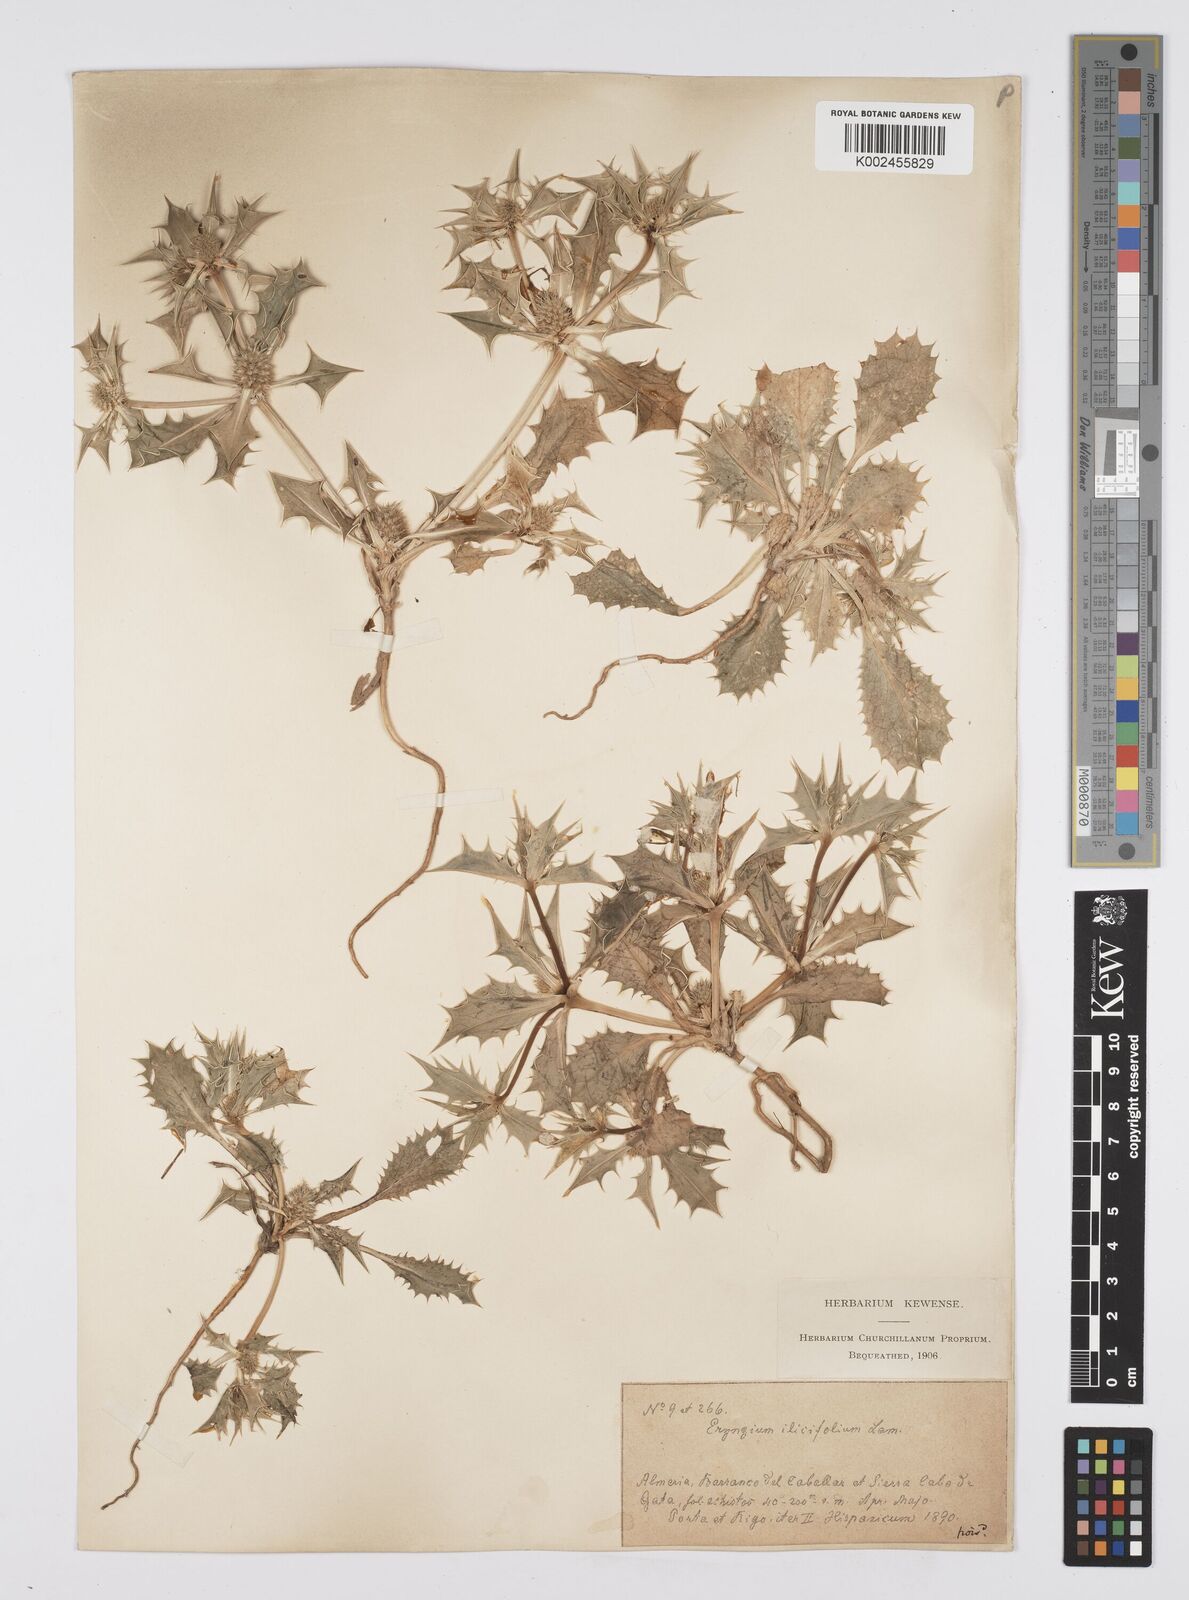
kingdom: Plantae
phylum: Tracheophyta
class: Magnoliopsida
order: Apiales
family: Apiaceae
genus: Eryngium
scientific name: Eryngium
